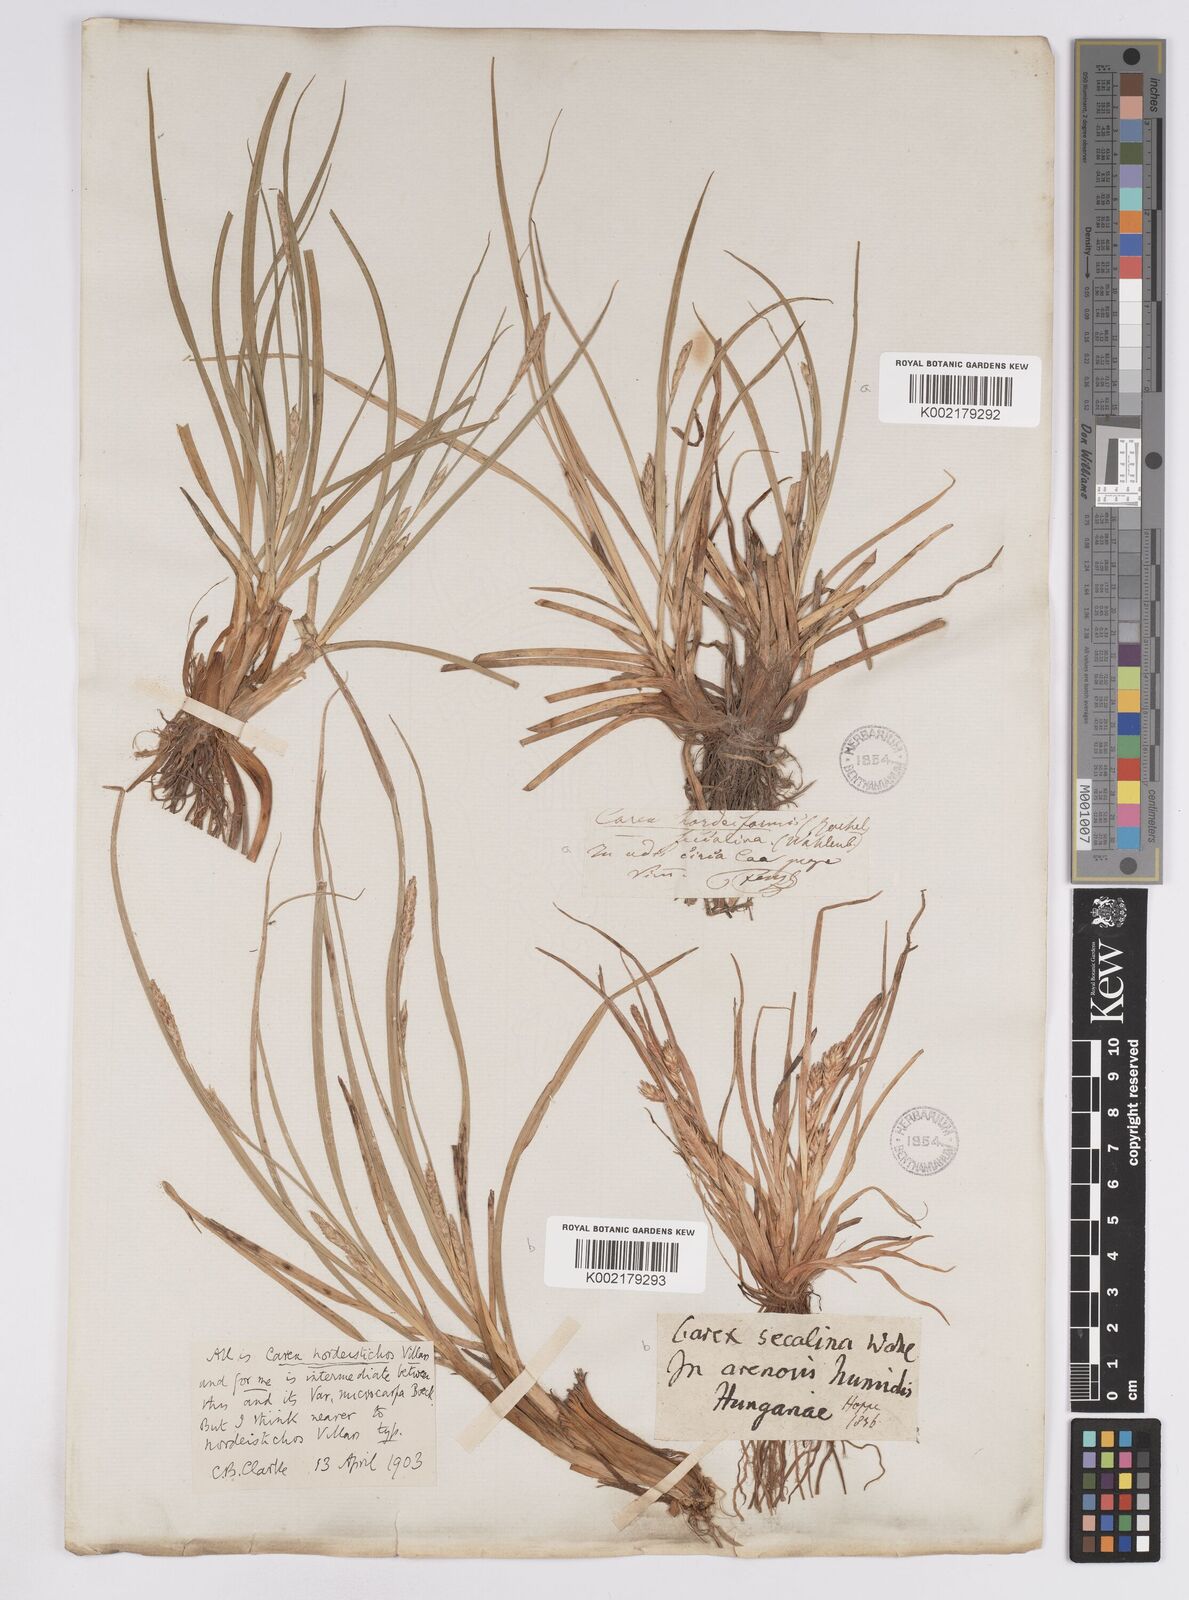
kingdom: Plantae
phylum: Tracheophyta
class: Liliopsida
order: Poales
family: Cyperaceae
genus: Carex
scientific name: Carex hordeistichos
